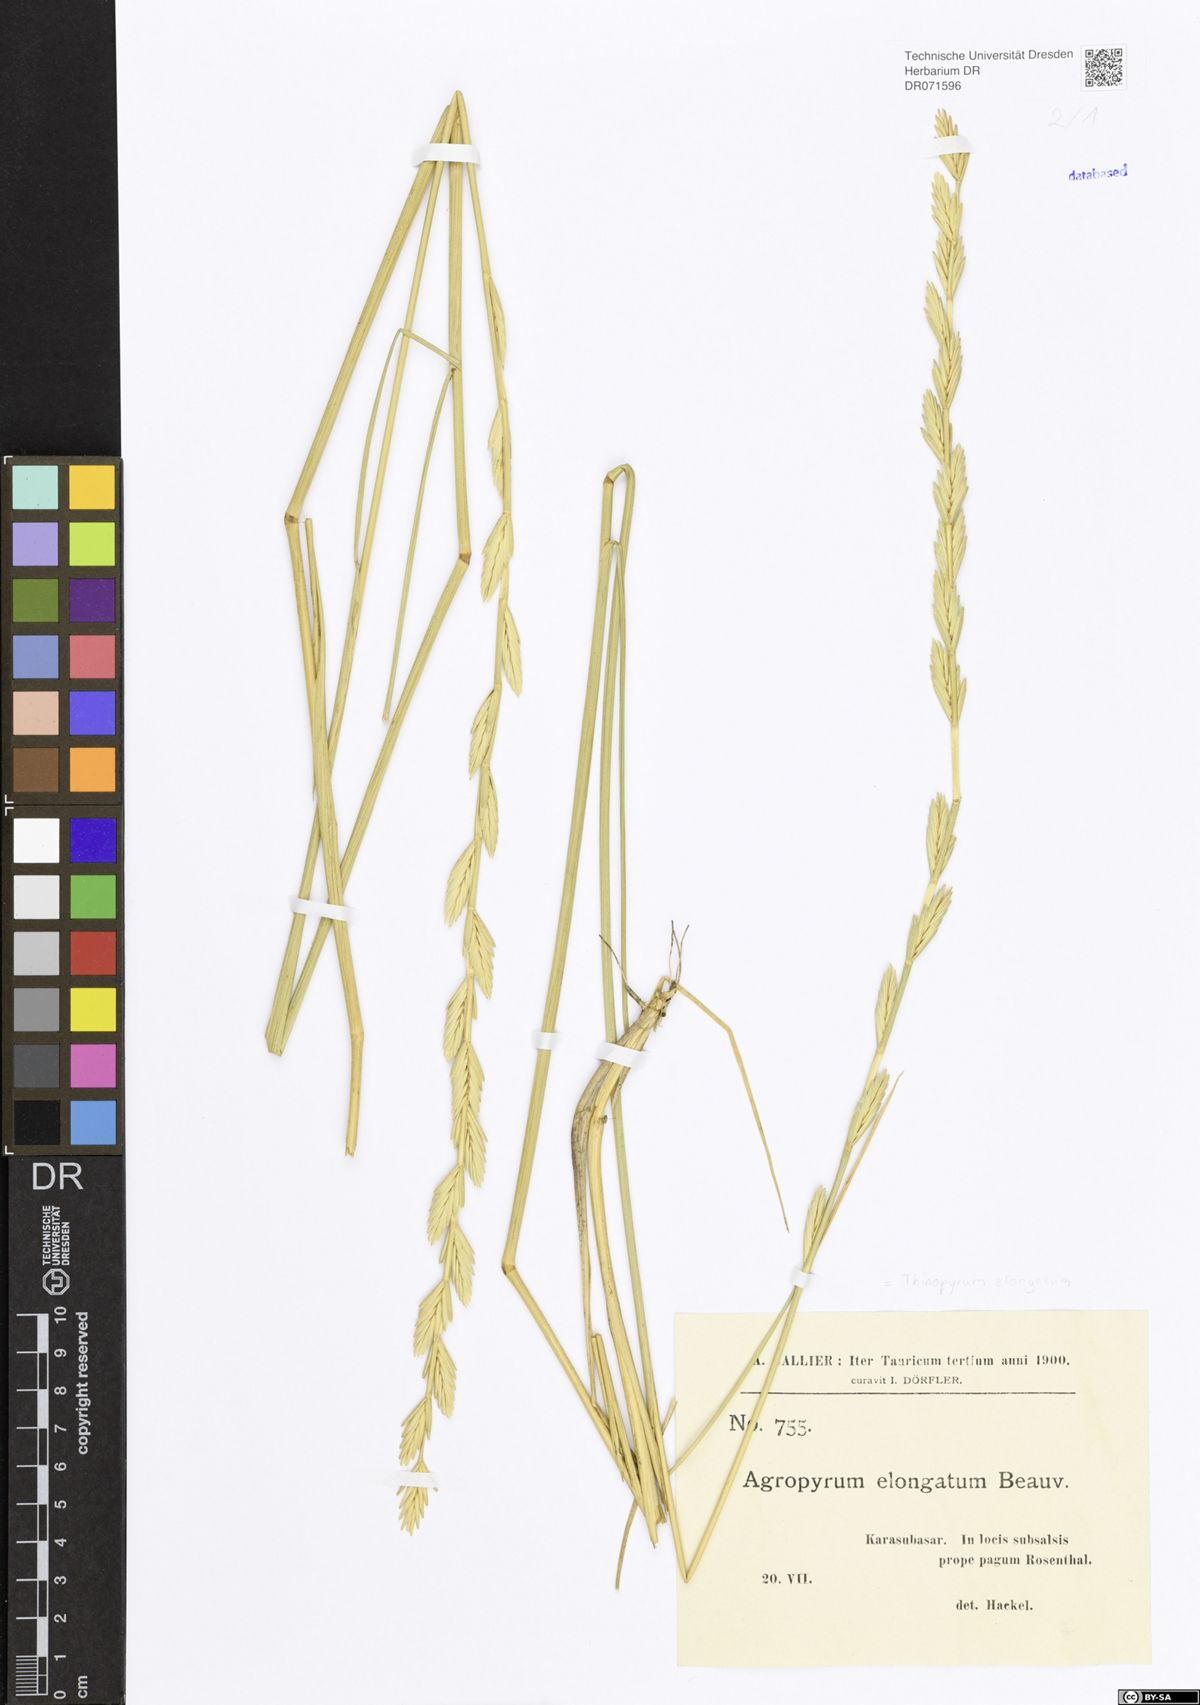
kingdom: Plantae
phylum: Tracheophyta
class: Liliopsida
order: Poales
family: Poaceae
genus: Thinopyrum
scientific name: Thinopyrum elongatum
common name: Tall wheatgrass
